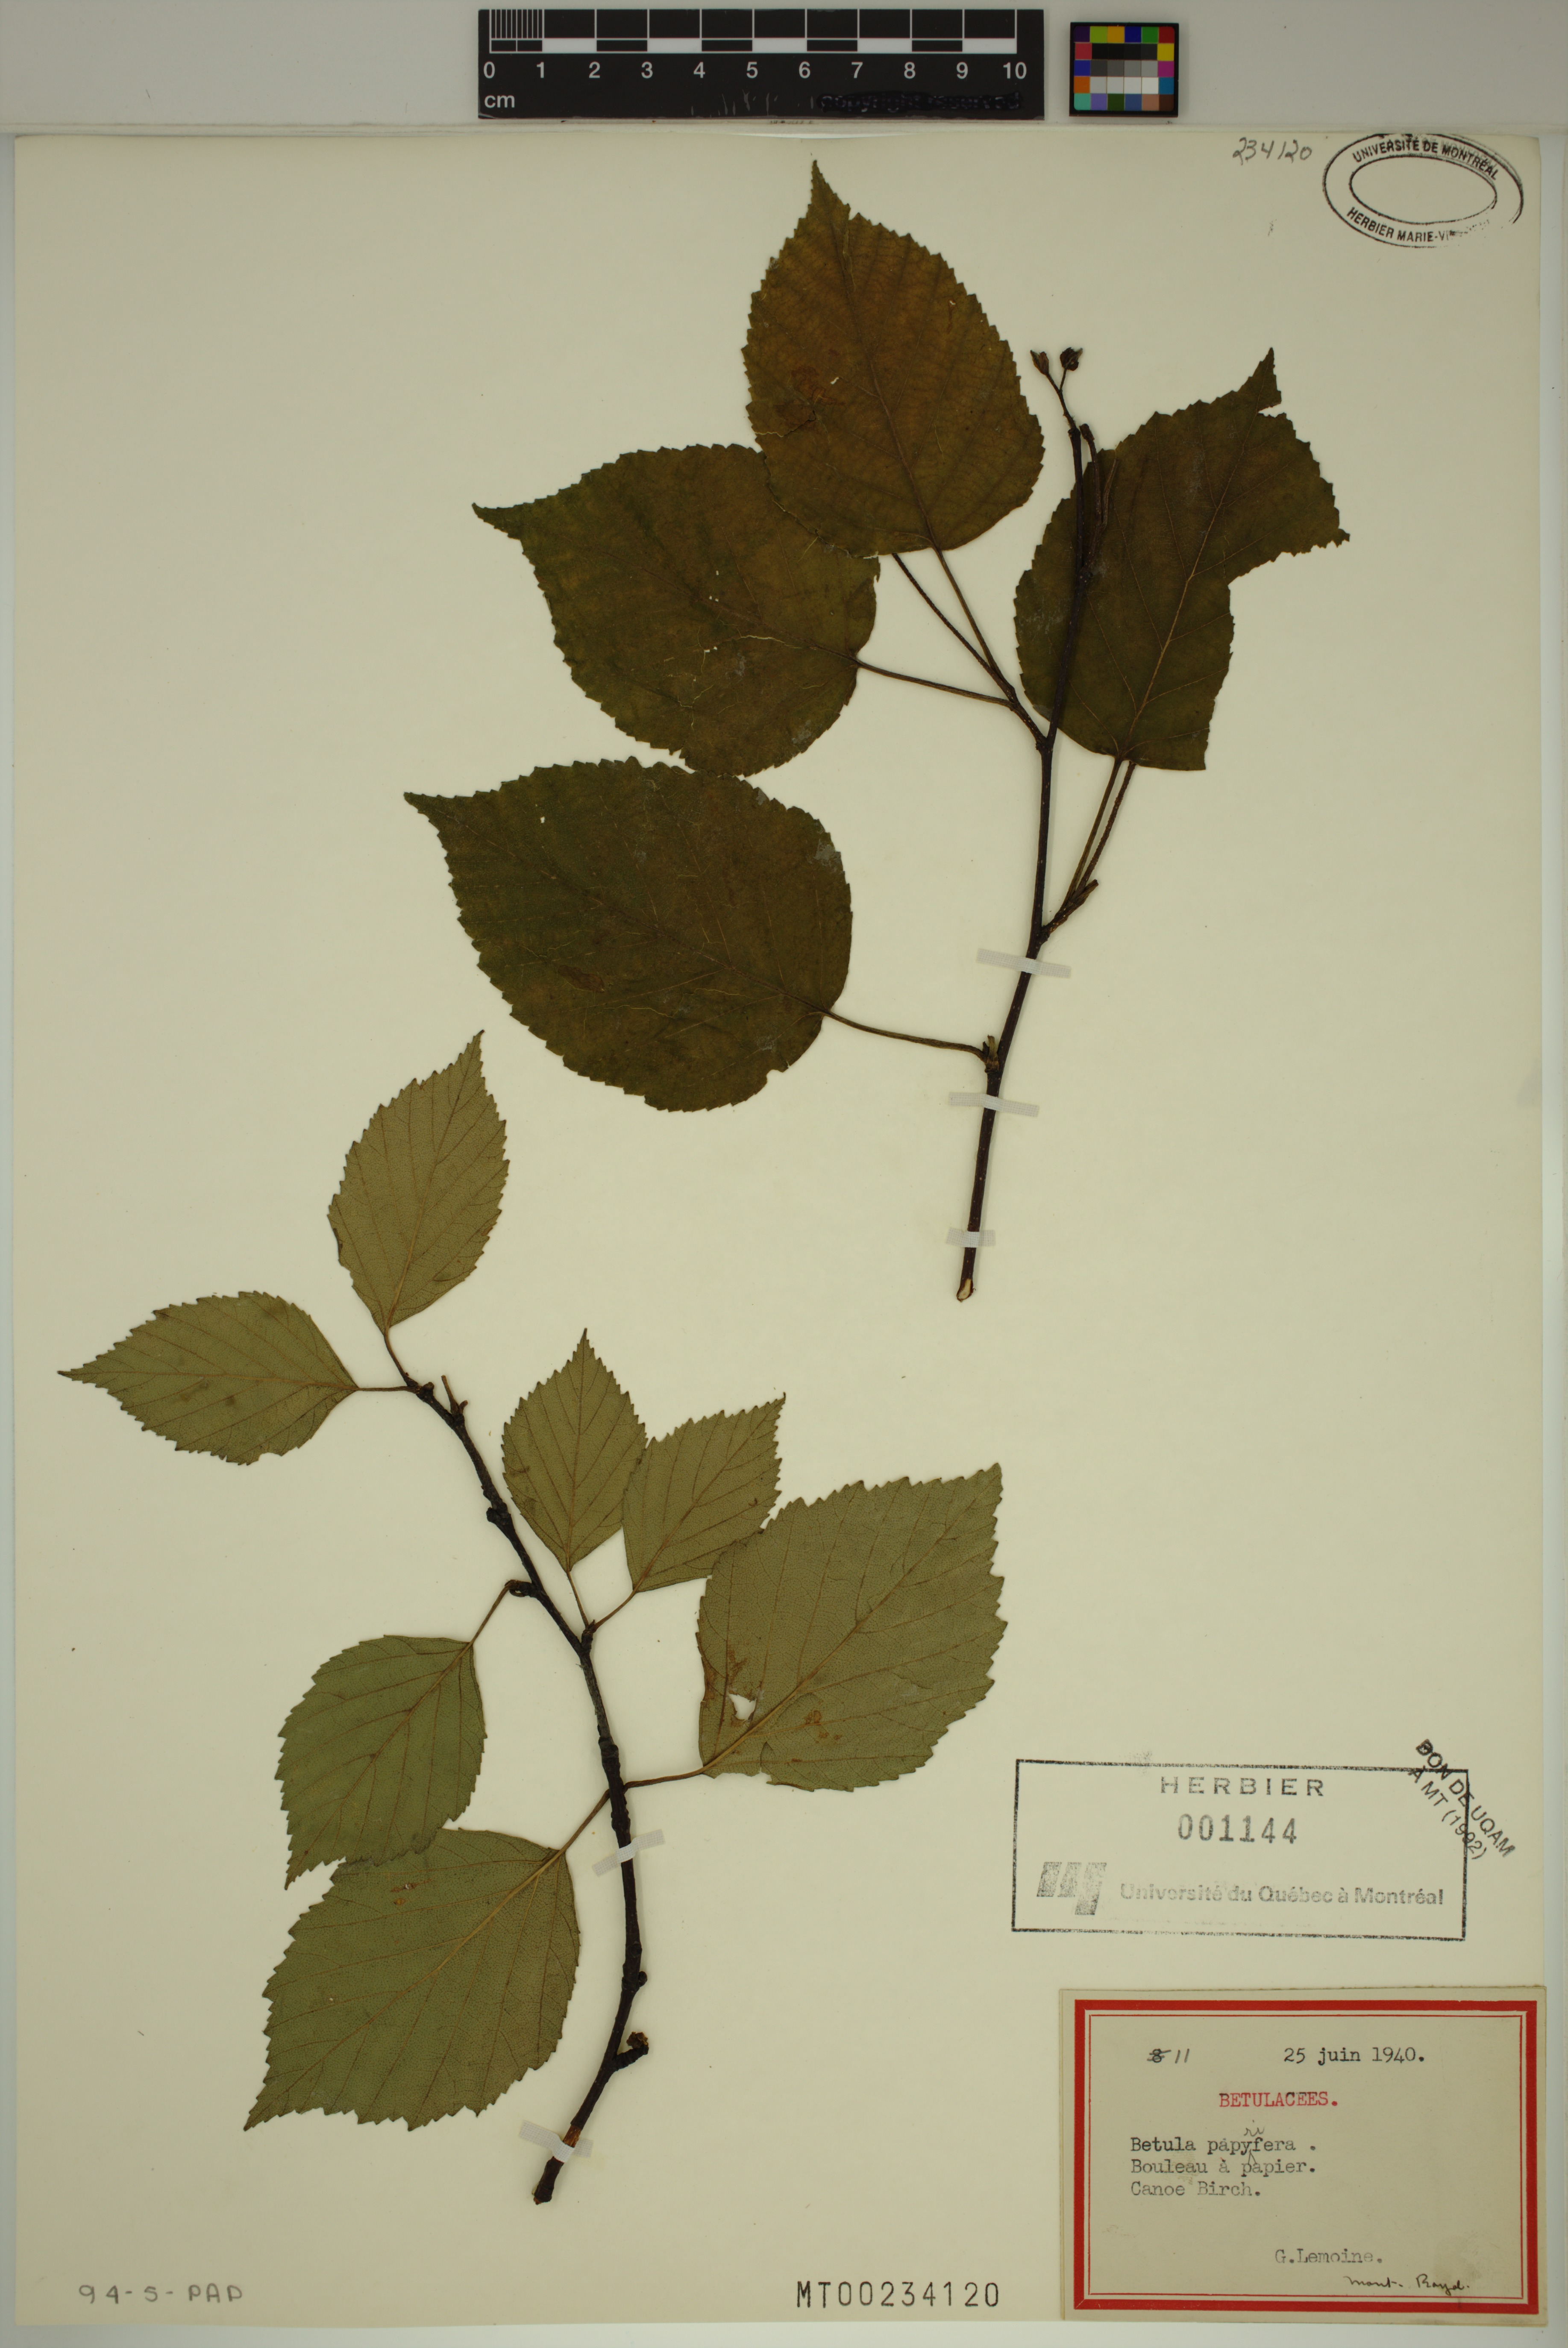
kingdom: Plantae
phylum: Tracheophyta
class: Magnoliopsida
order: Fagales
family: Betulaceae
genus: Betula
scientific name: Betula papyrifera
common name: Paper birch
